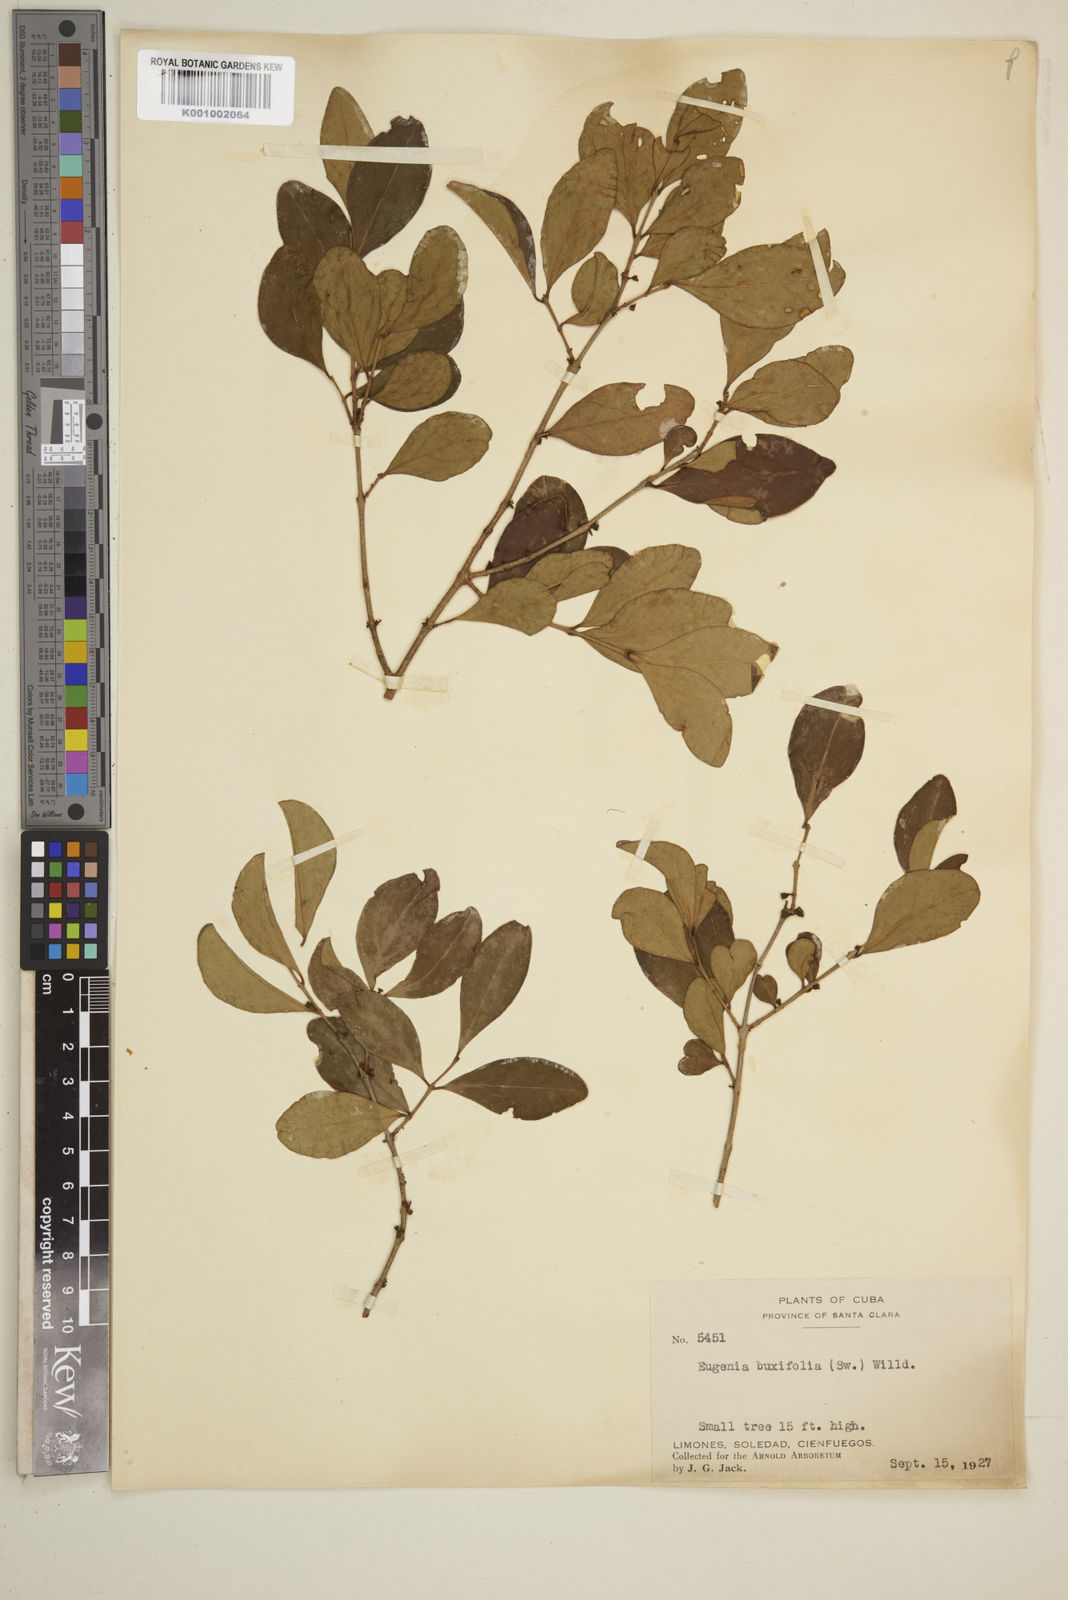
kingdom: Plantae
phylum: Tracheophyta
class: Magnoliopsida
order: Myrtales
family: Myrtaceae
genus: Eugenia
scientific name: Eugenia buxifolia
